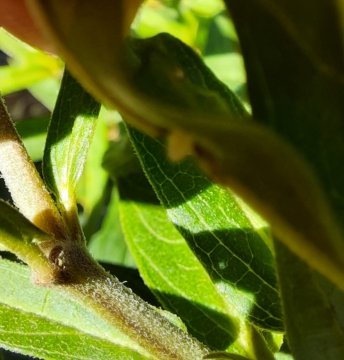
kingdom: Animalia
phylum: Arthropoda
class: Insecta
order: Lepidoptera
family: Nymphalidae
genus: Danaus
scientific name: Danaus plexippus
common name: Monarch
